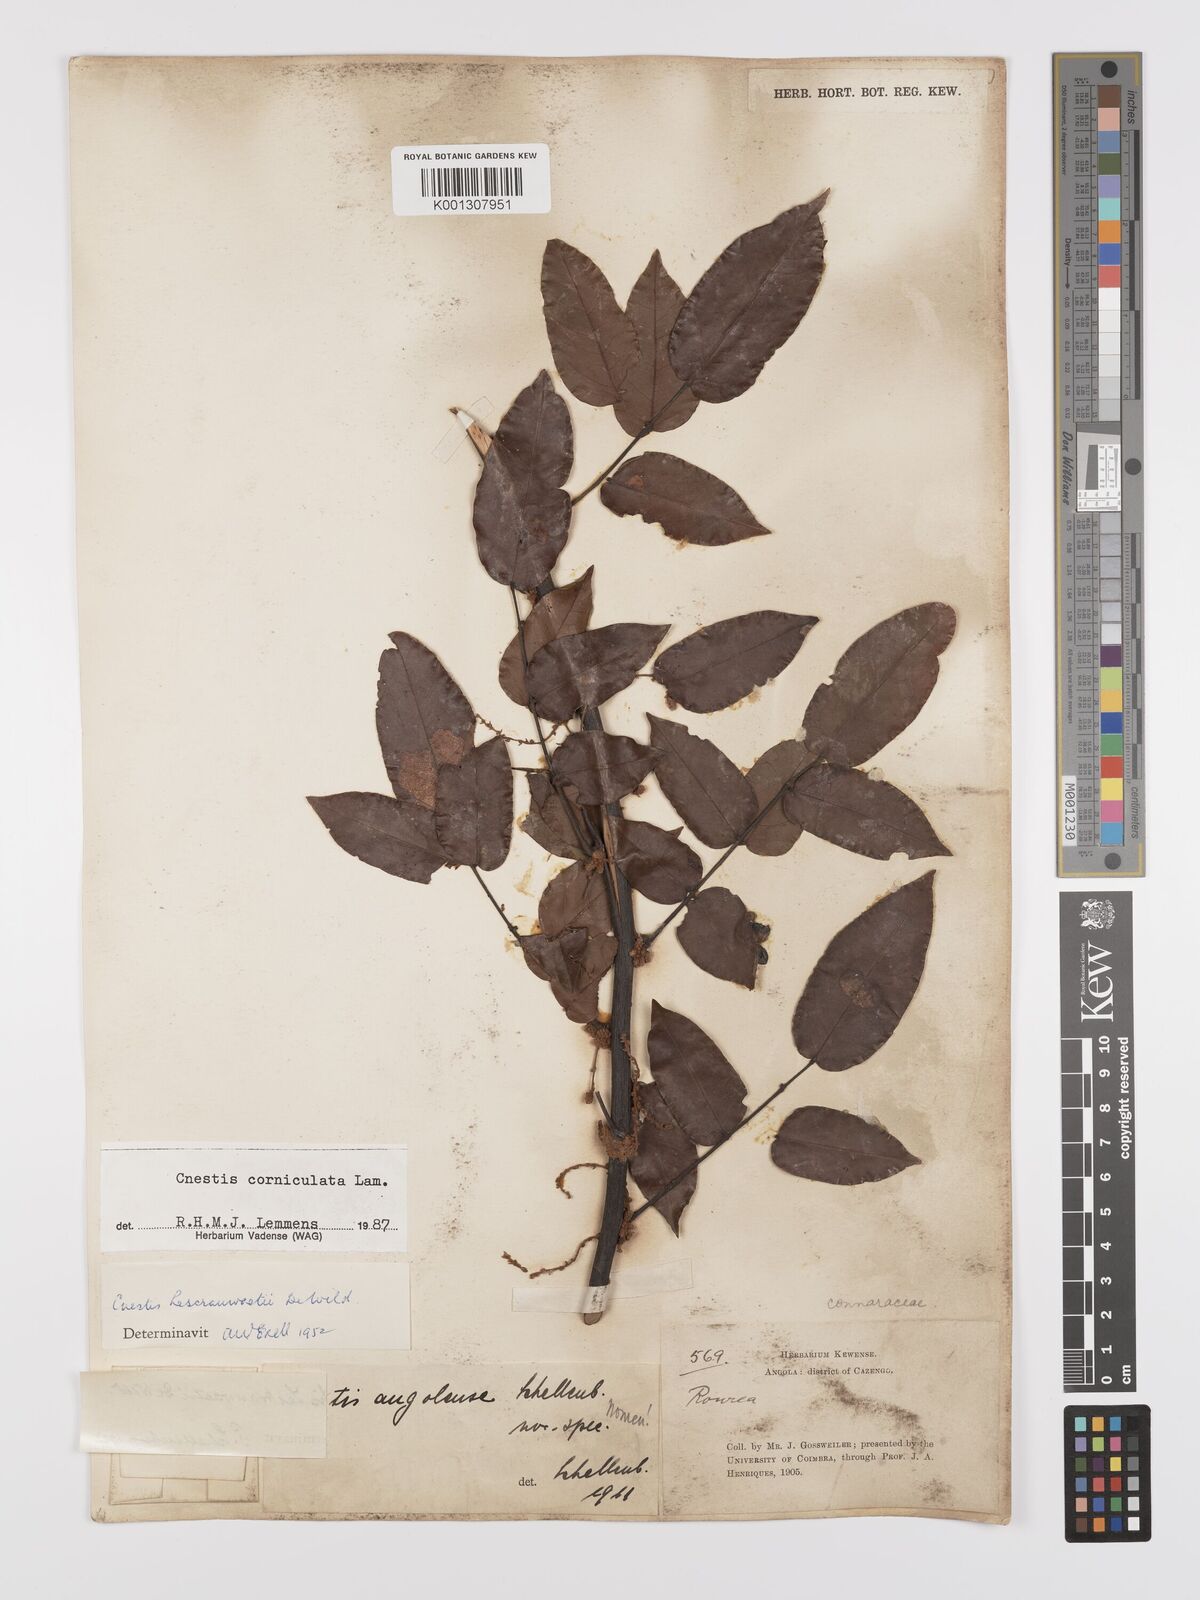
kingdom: Plantae
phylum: Tracheophyta
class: Magnoliopsida
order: Oxalidales
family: Connaraceae
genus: Cnestis
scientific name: Cnestis corniculata
